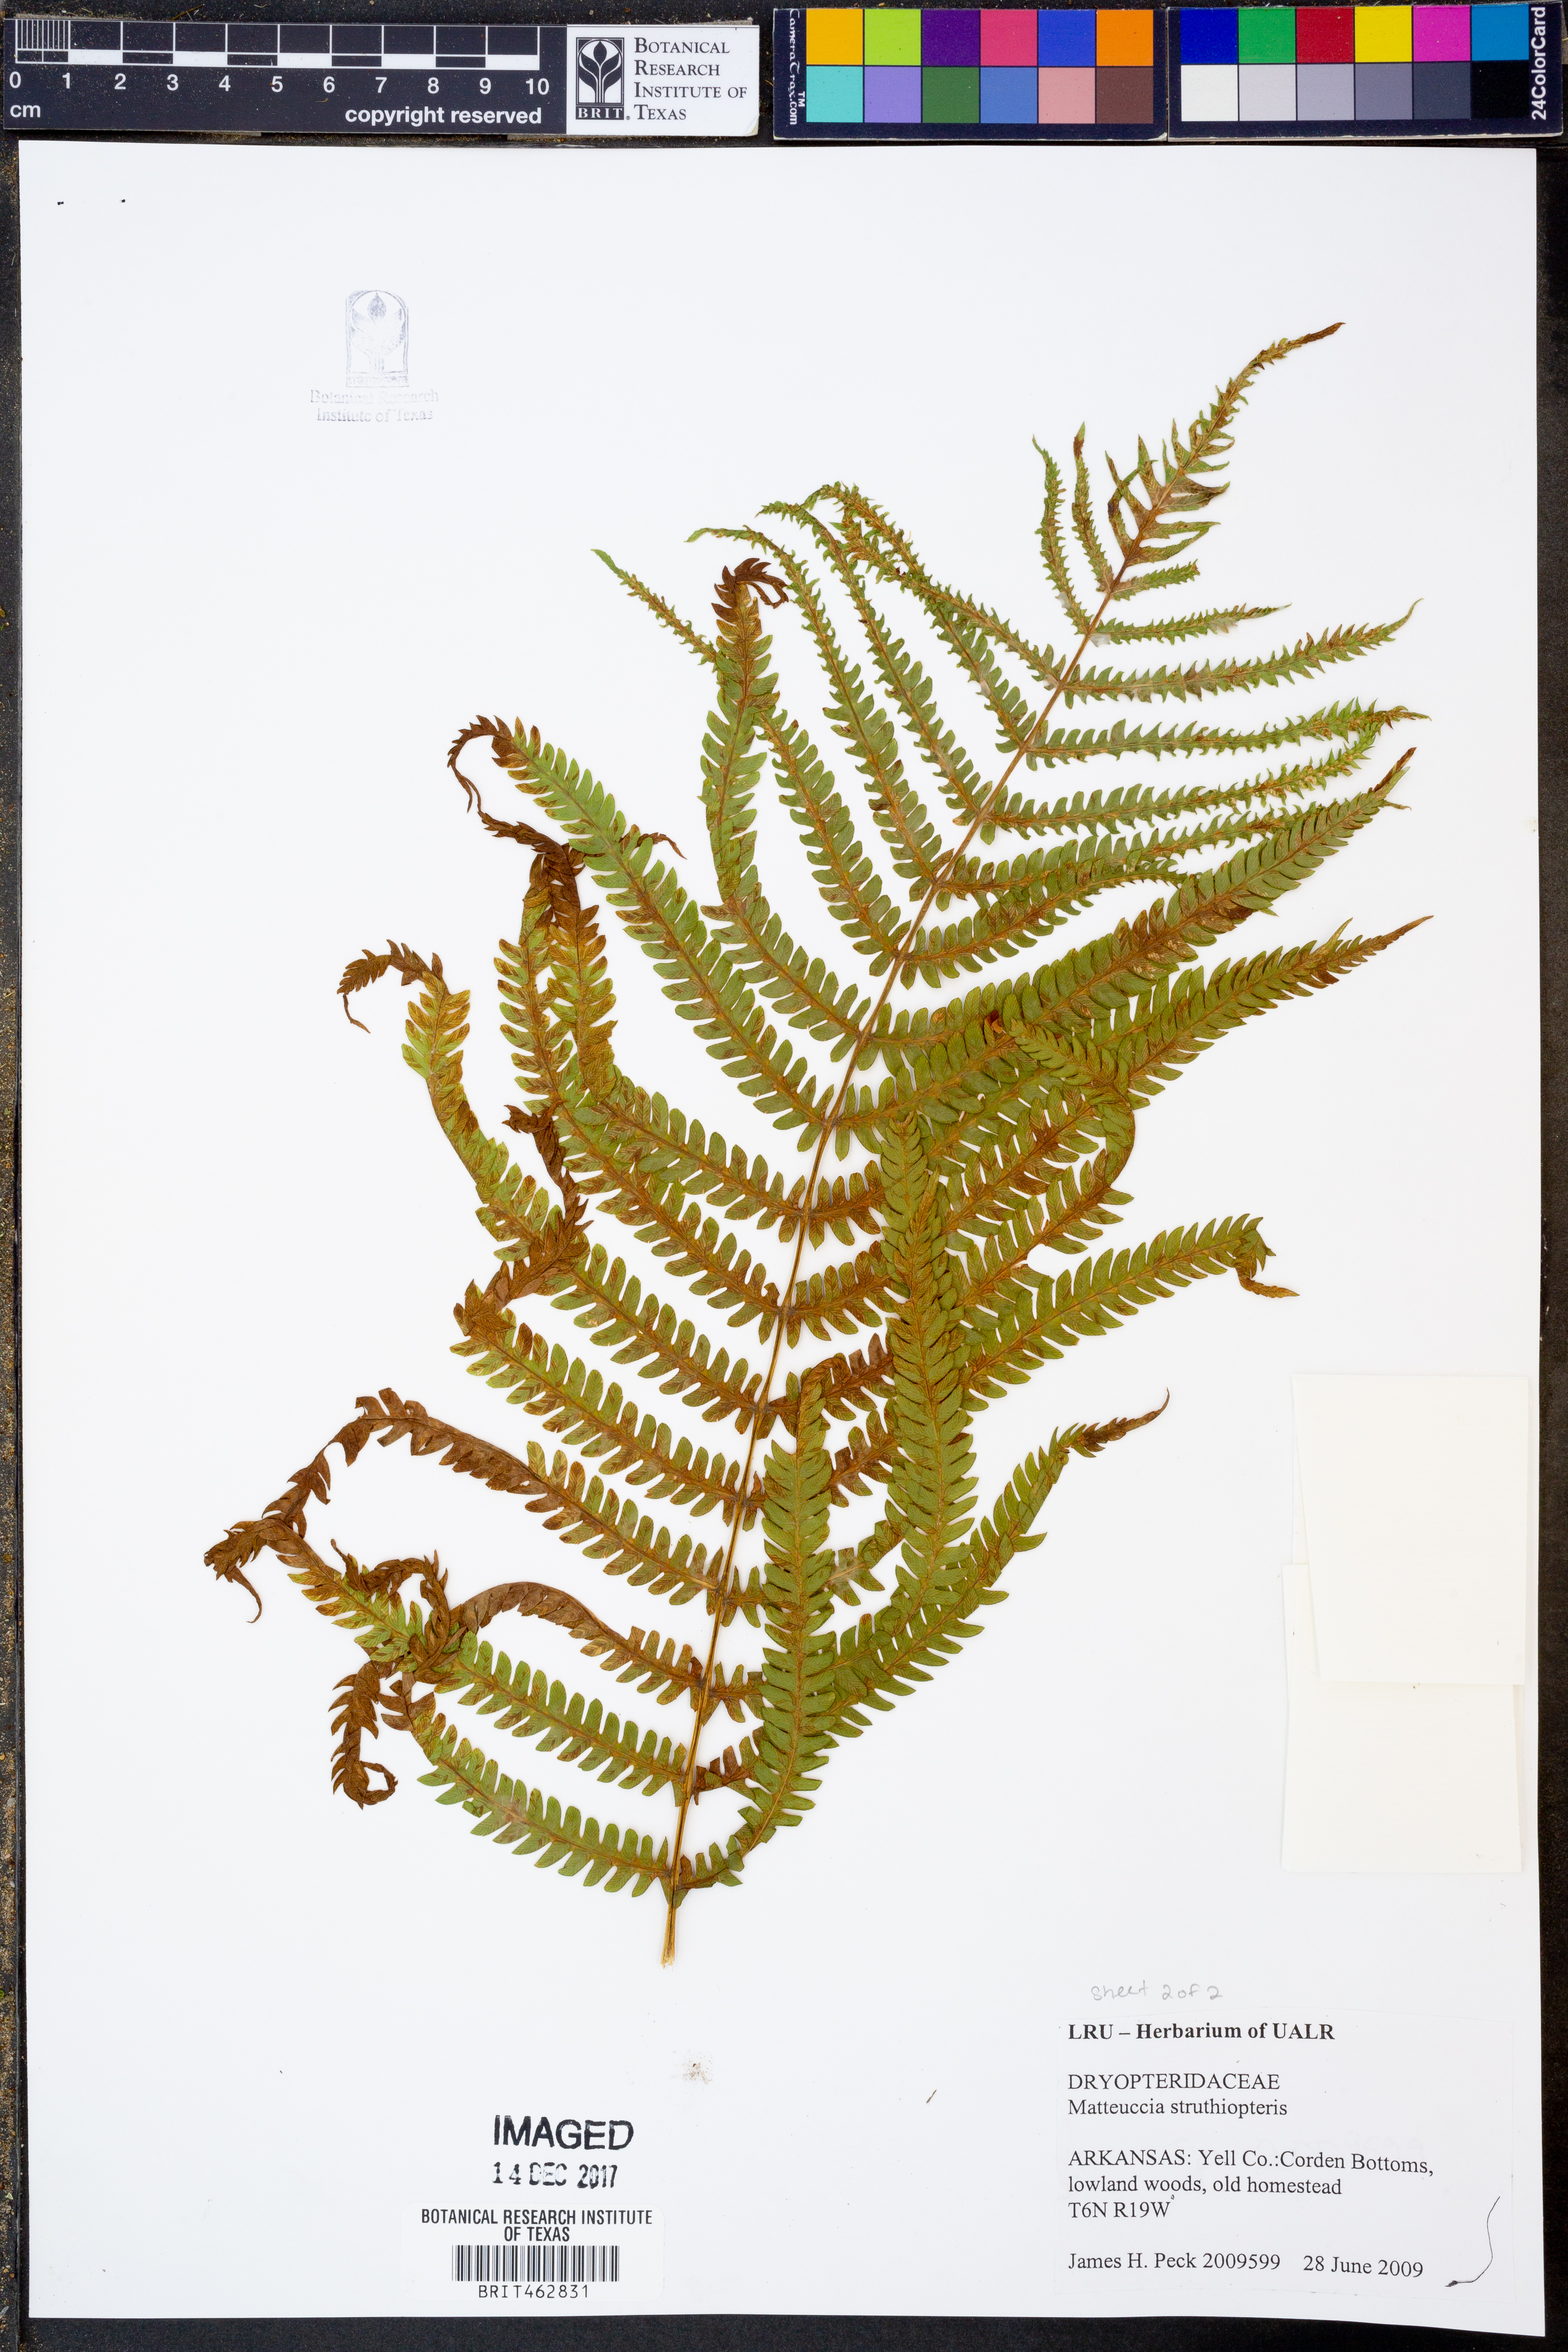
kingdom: Plantae
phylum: Tracheophyta
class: Polypodiopsida
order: Polypodiales
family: Onocleaceae
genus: Matteuccia
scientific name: Matteuccia struthiopteris
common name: Ostrich fern
